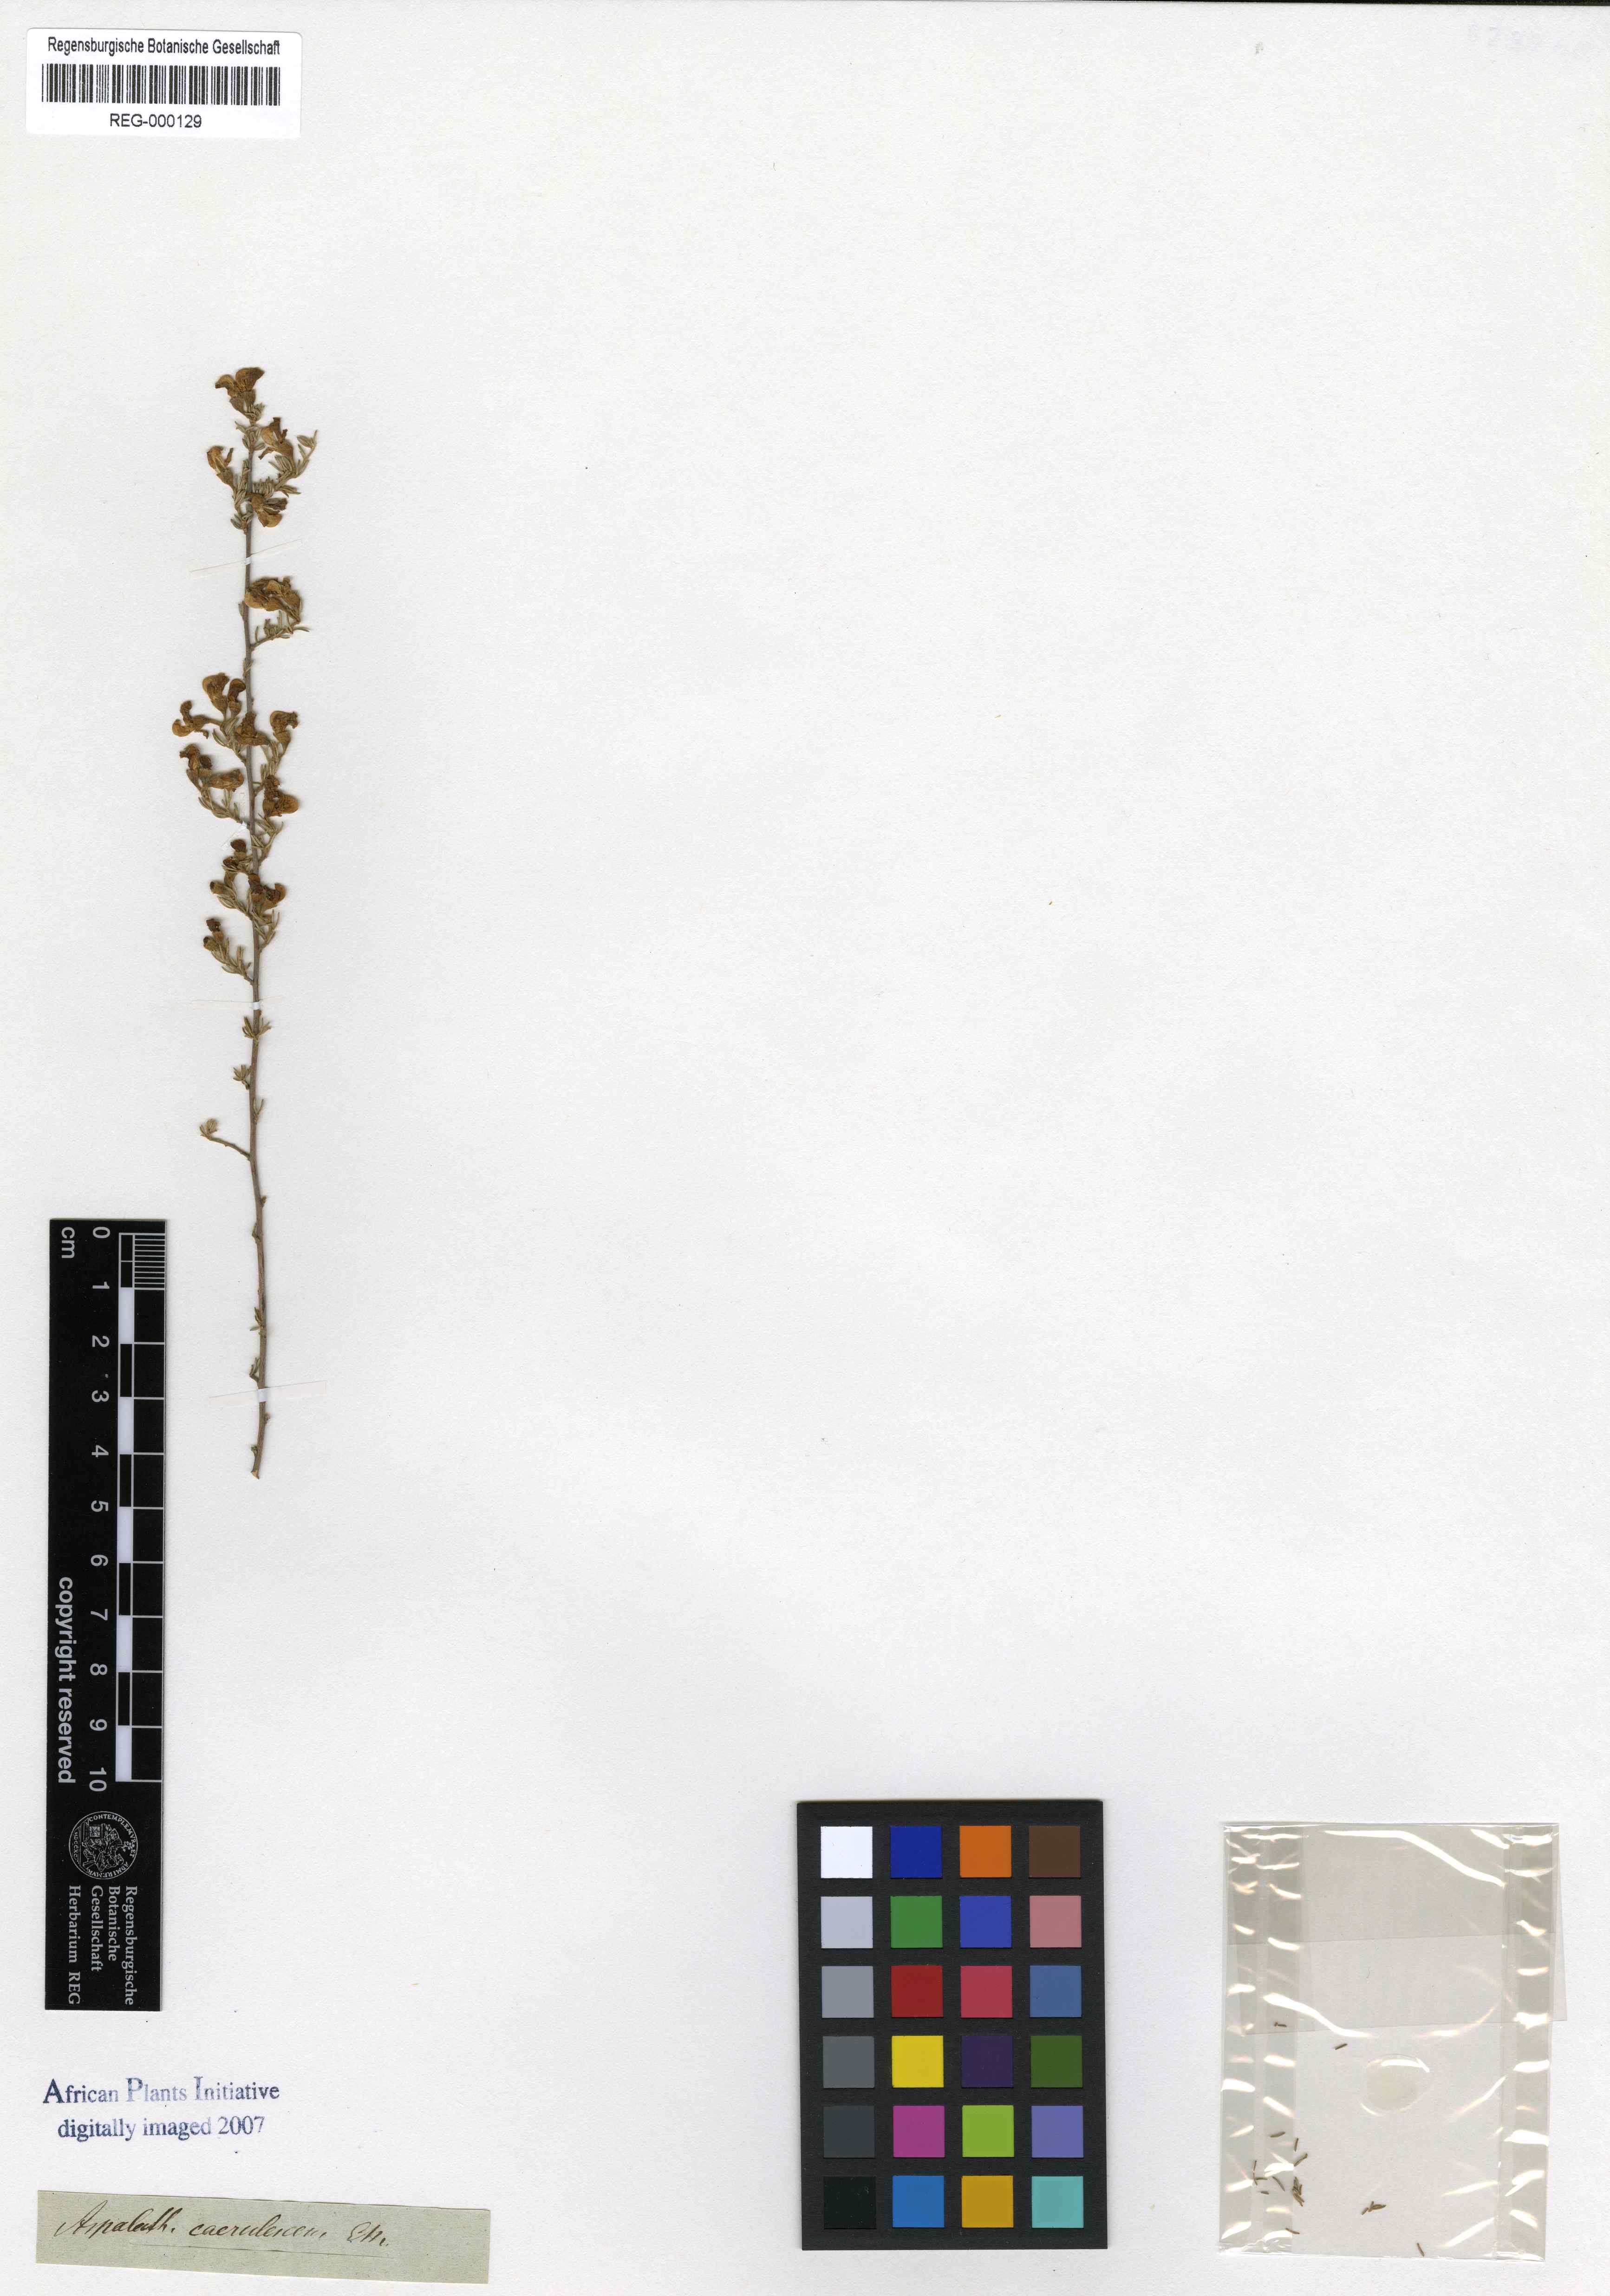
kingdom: Plantae
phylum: Tracheophyta
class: Magnoliopsida
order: Fabales
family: Fabaceae
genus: Lotononis
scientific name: Lotononis caerulescens
